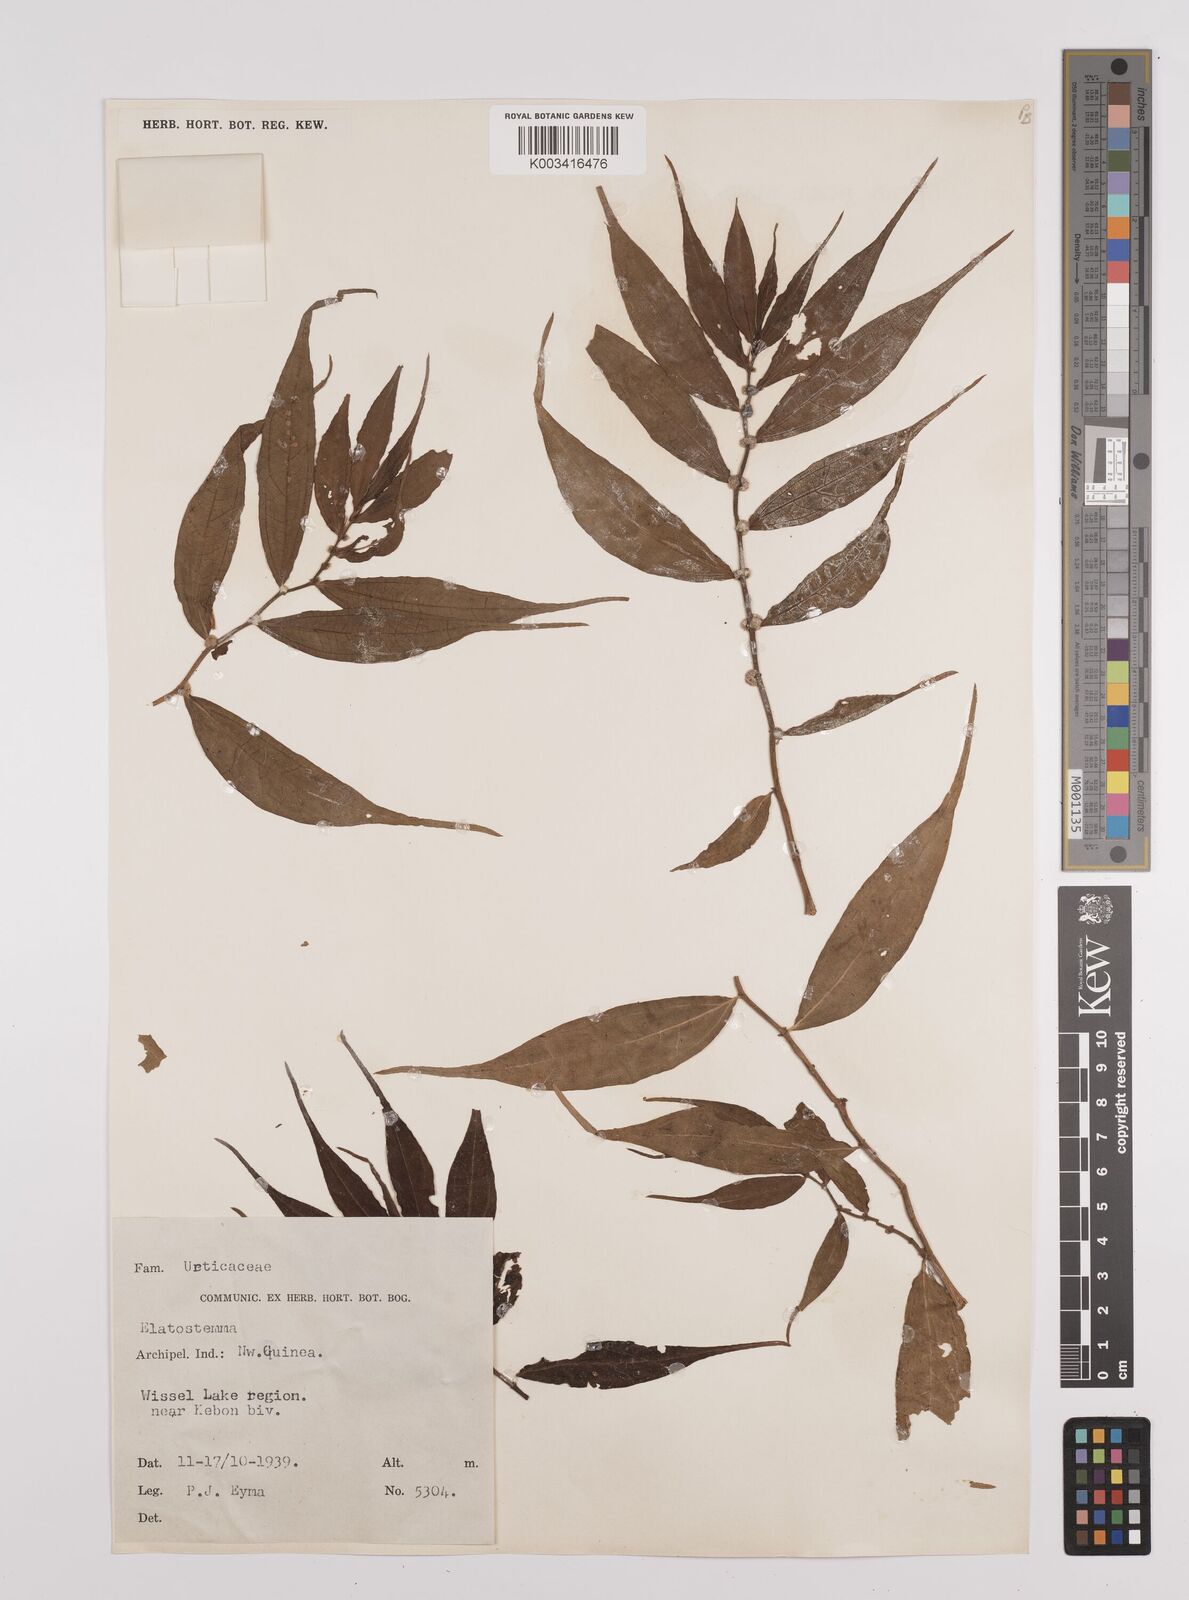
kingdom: Plantae
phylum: Tracheophyta
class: Magnoliopsida
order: Rosales
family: Urticaceae
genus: Elatostema
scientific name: Elatostema
